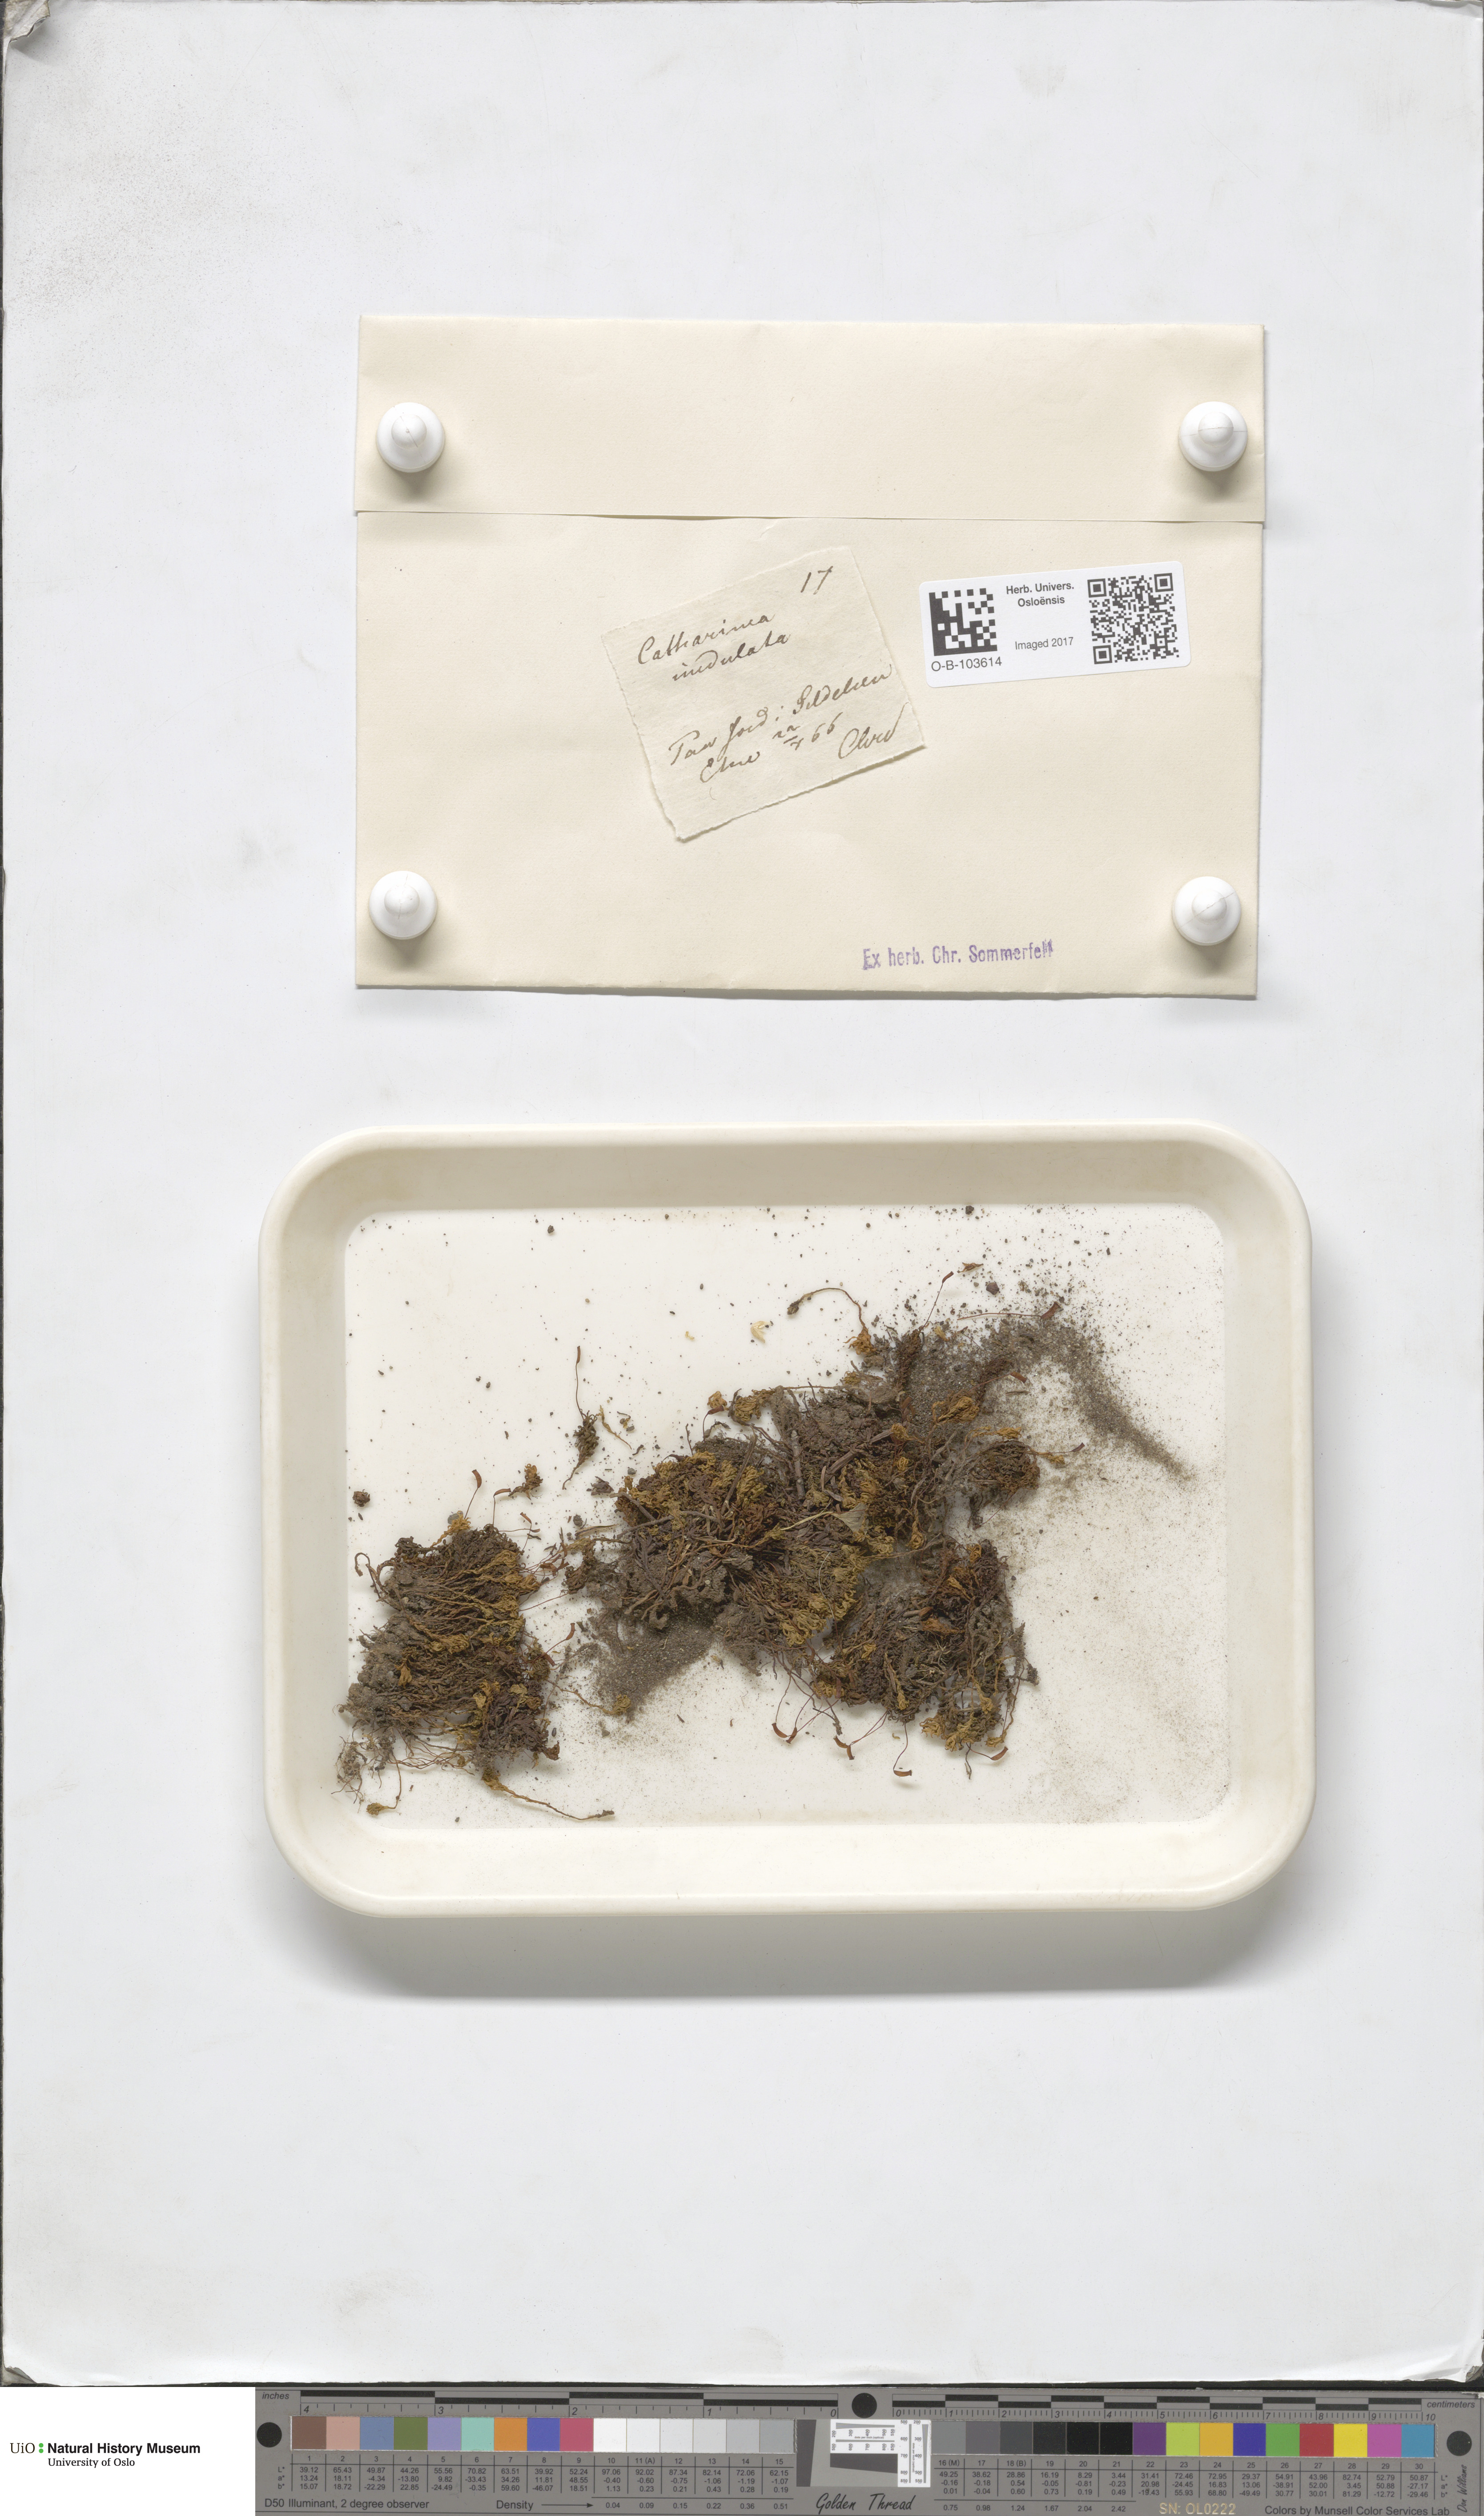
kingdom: Plantae
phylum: Bryophyta
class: Polytrichopsida
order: Polytrichales
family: Polytrichaceae
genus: Atrichum
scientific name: Atrichum undulatum
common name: Common smoothcap
